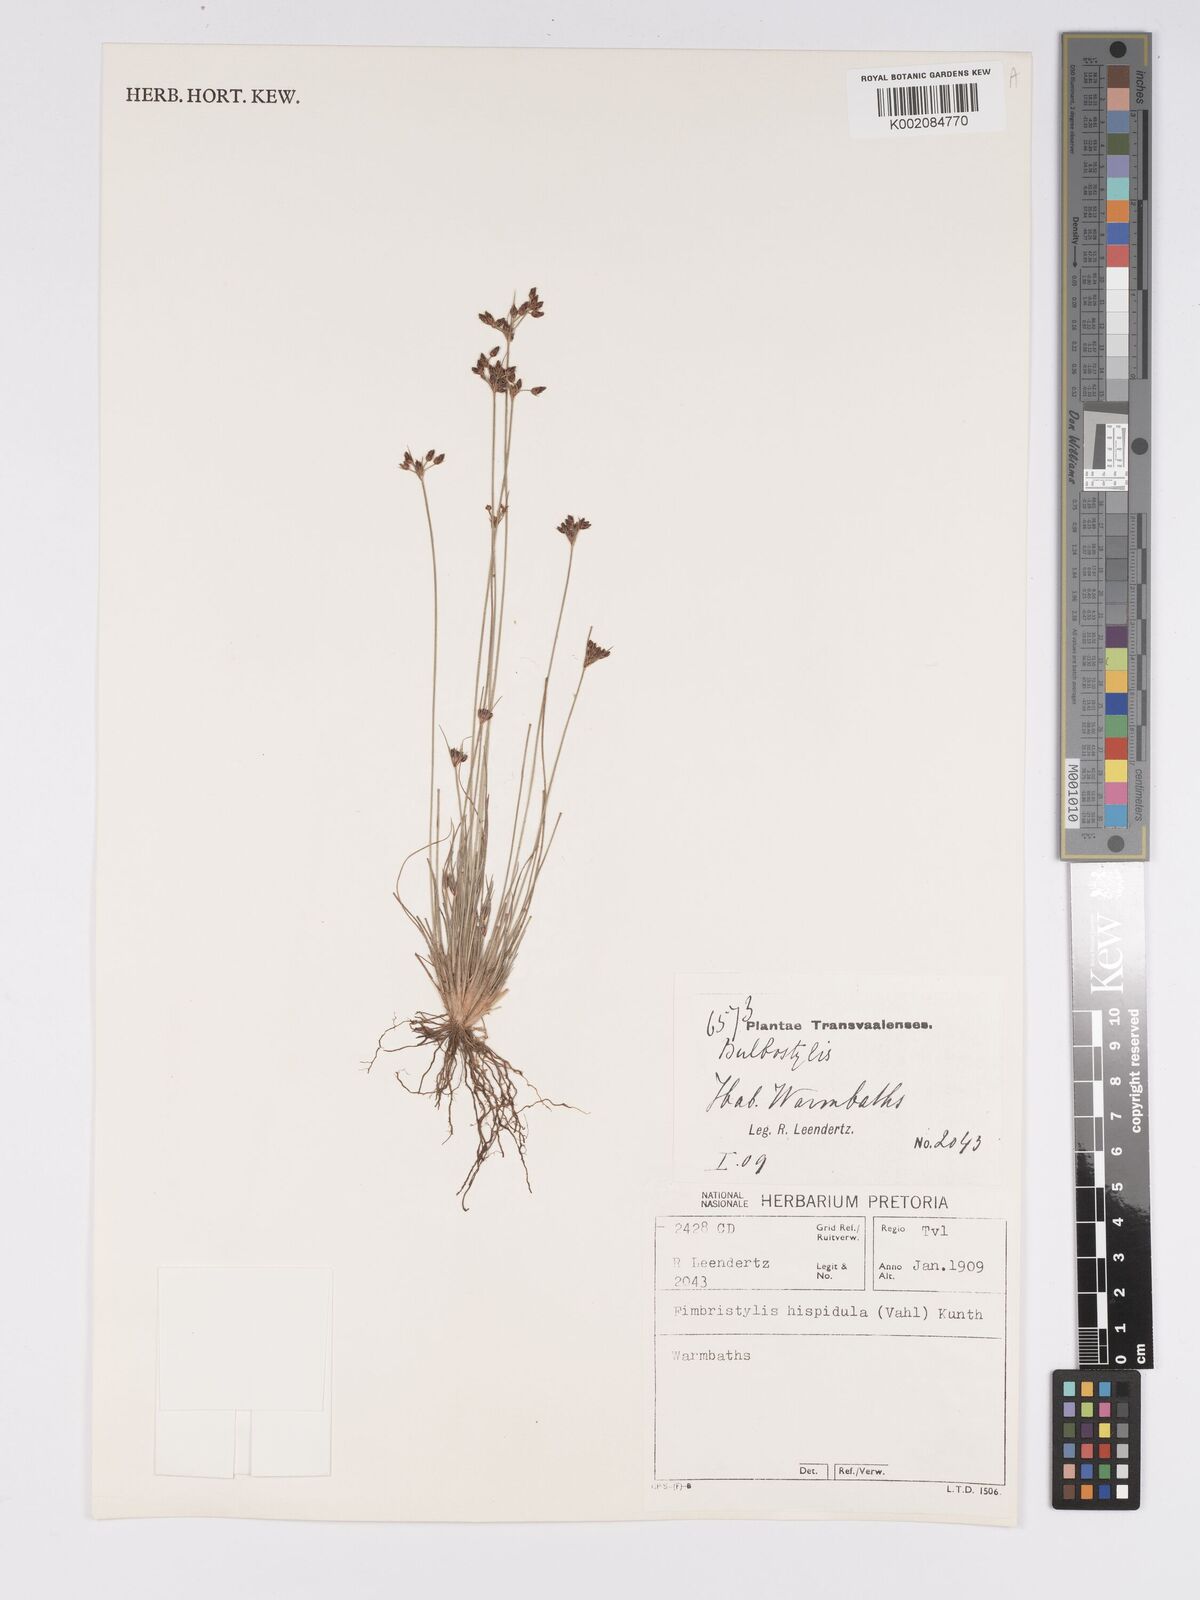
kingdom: Plantae
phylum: Tracheophyta
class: Liliopsida
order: Poales
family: Cyperaceae
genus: Bulbostylis
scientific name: Bulbostylis hispidula
